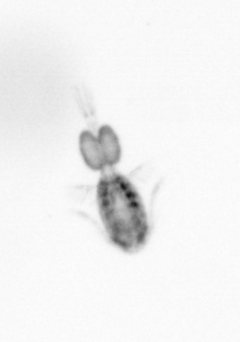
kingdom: Animalia
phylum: Arthropoda
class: Copepoda
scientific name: Copepoda
